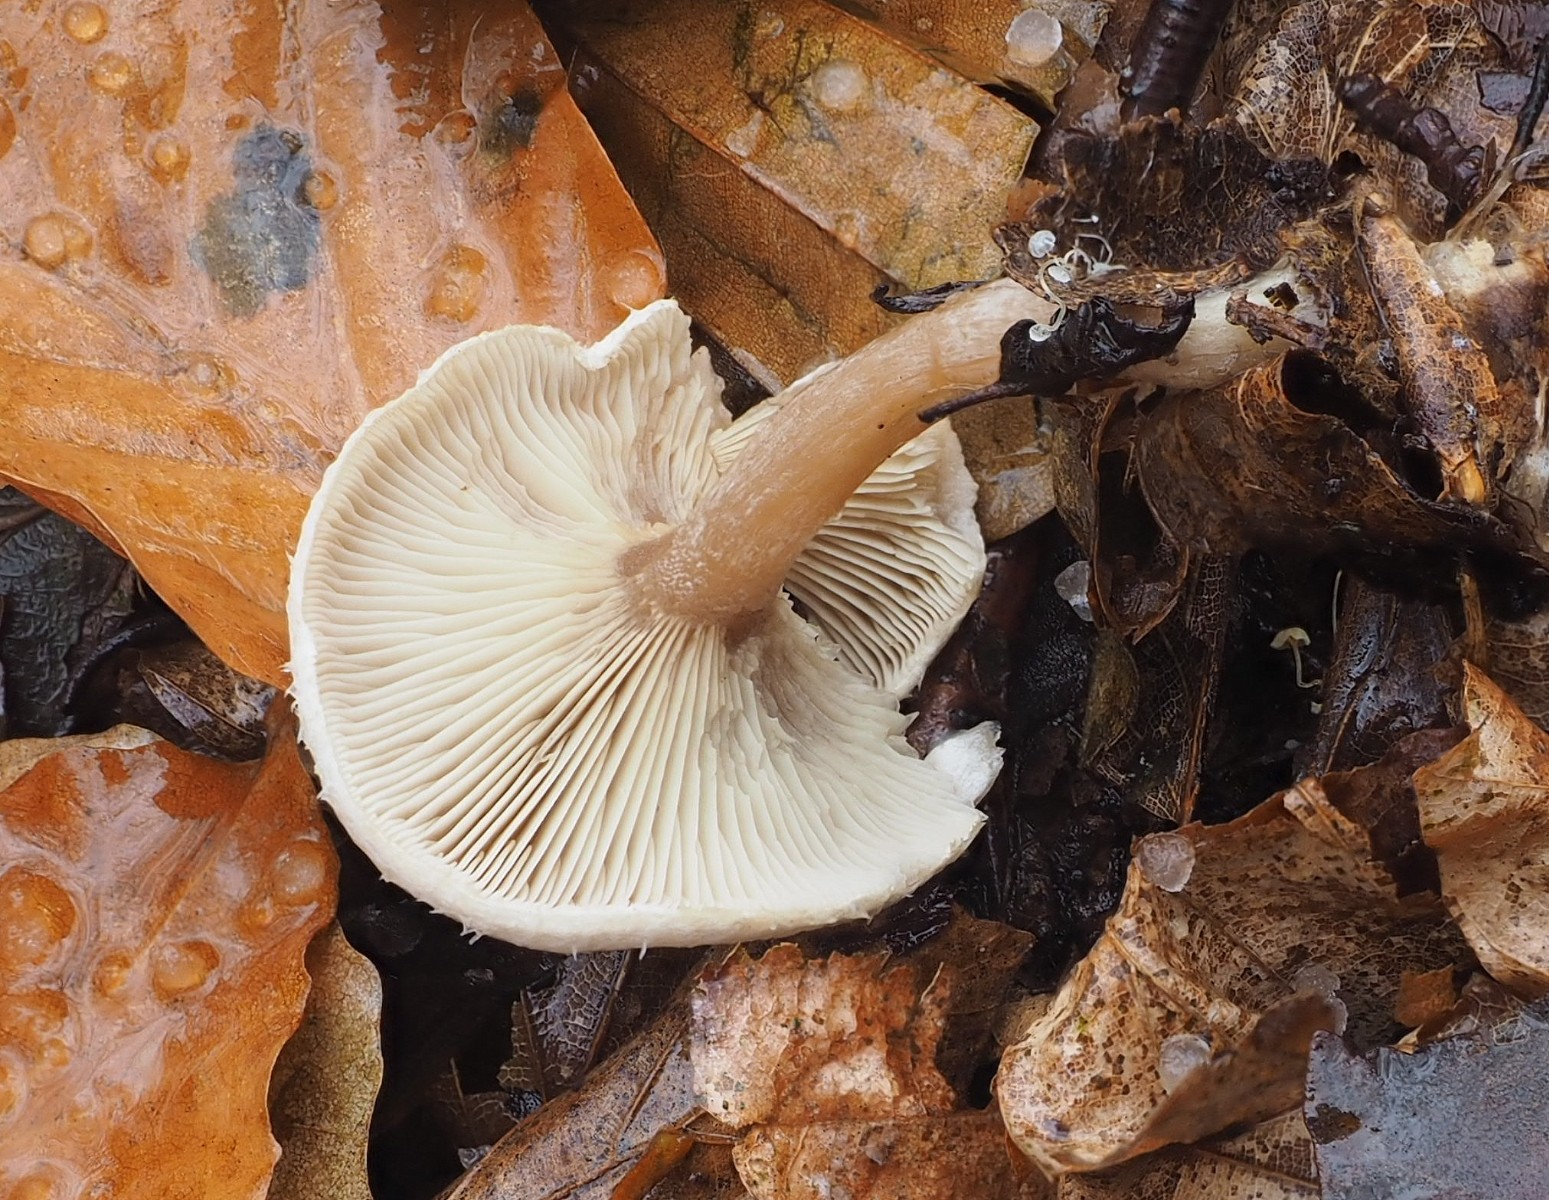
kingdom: Fungi
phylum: Basidiomycota
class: Agaricomycetes
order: Agaricales
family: Tricholomataceae
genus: Ripartites
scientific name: Ripartites tricholoma
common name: almindelig skæghat
